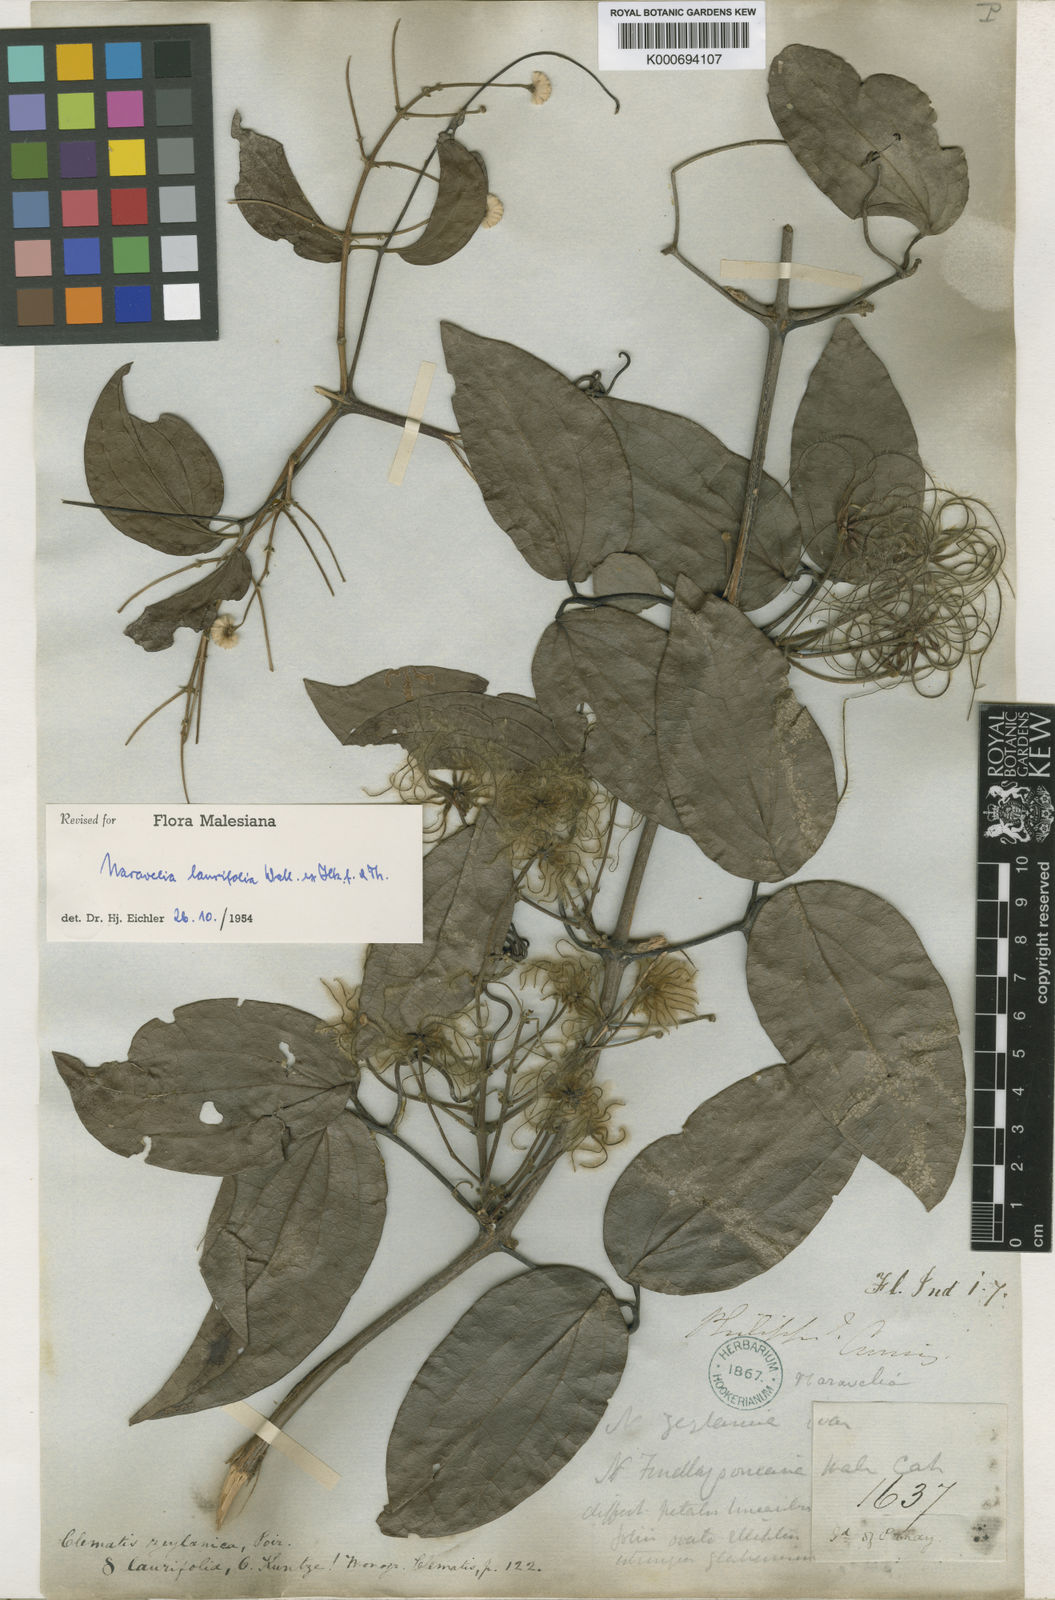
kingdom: Plantae
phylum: Tracheophyta
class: Magnoliopsida
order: Ranunculales
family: Ranunculaceae
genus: Clematis
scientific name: Clematis horripilata
